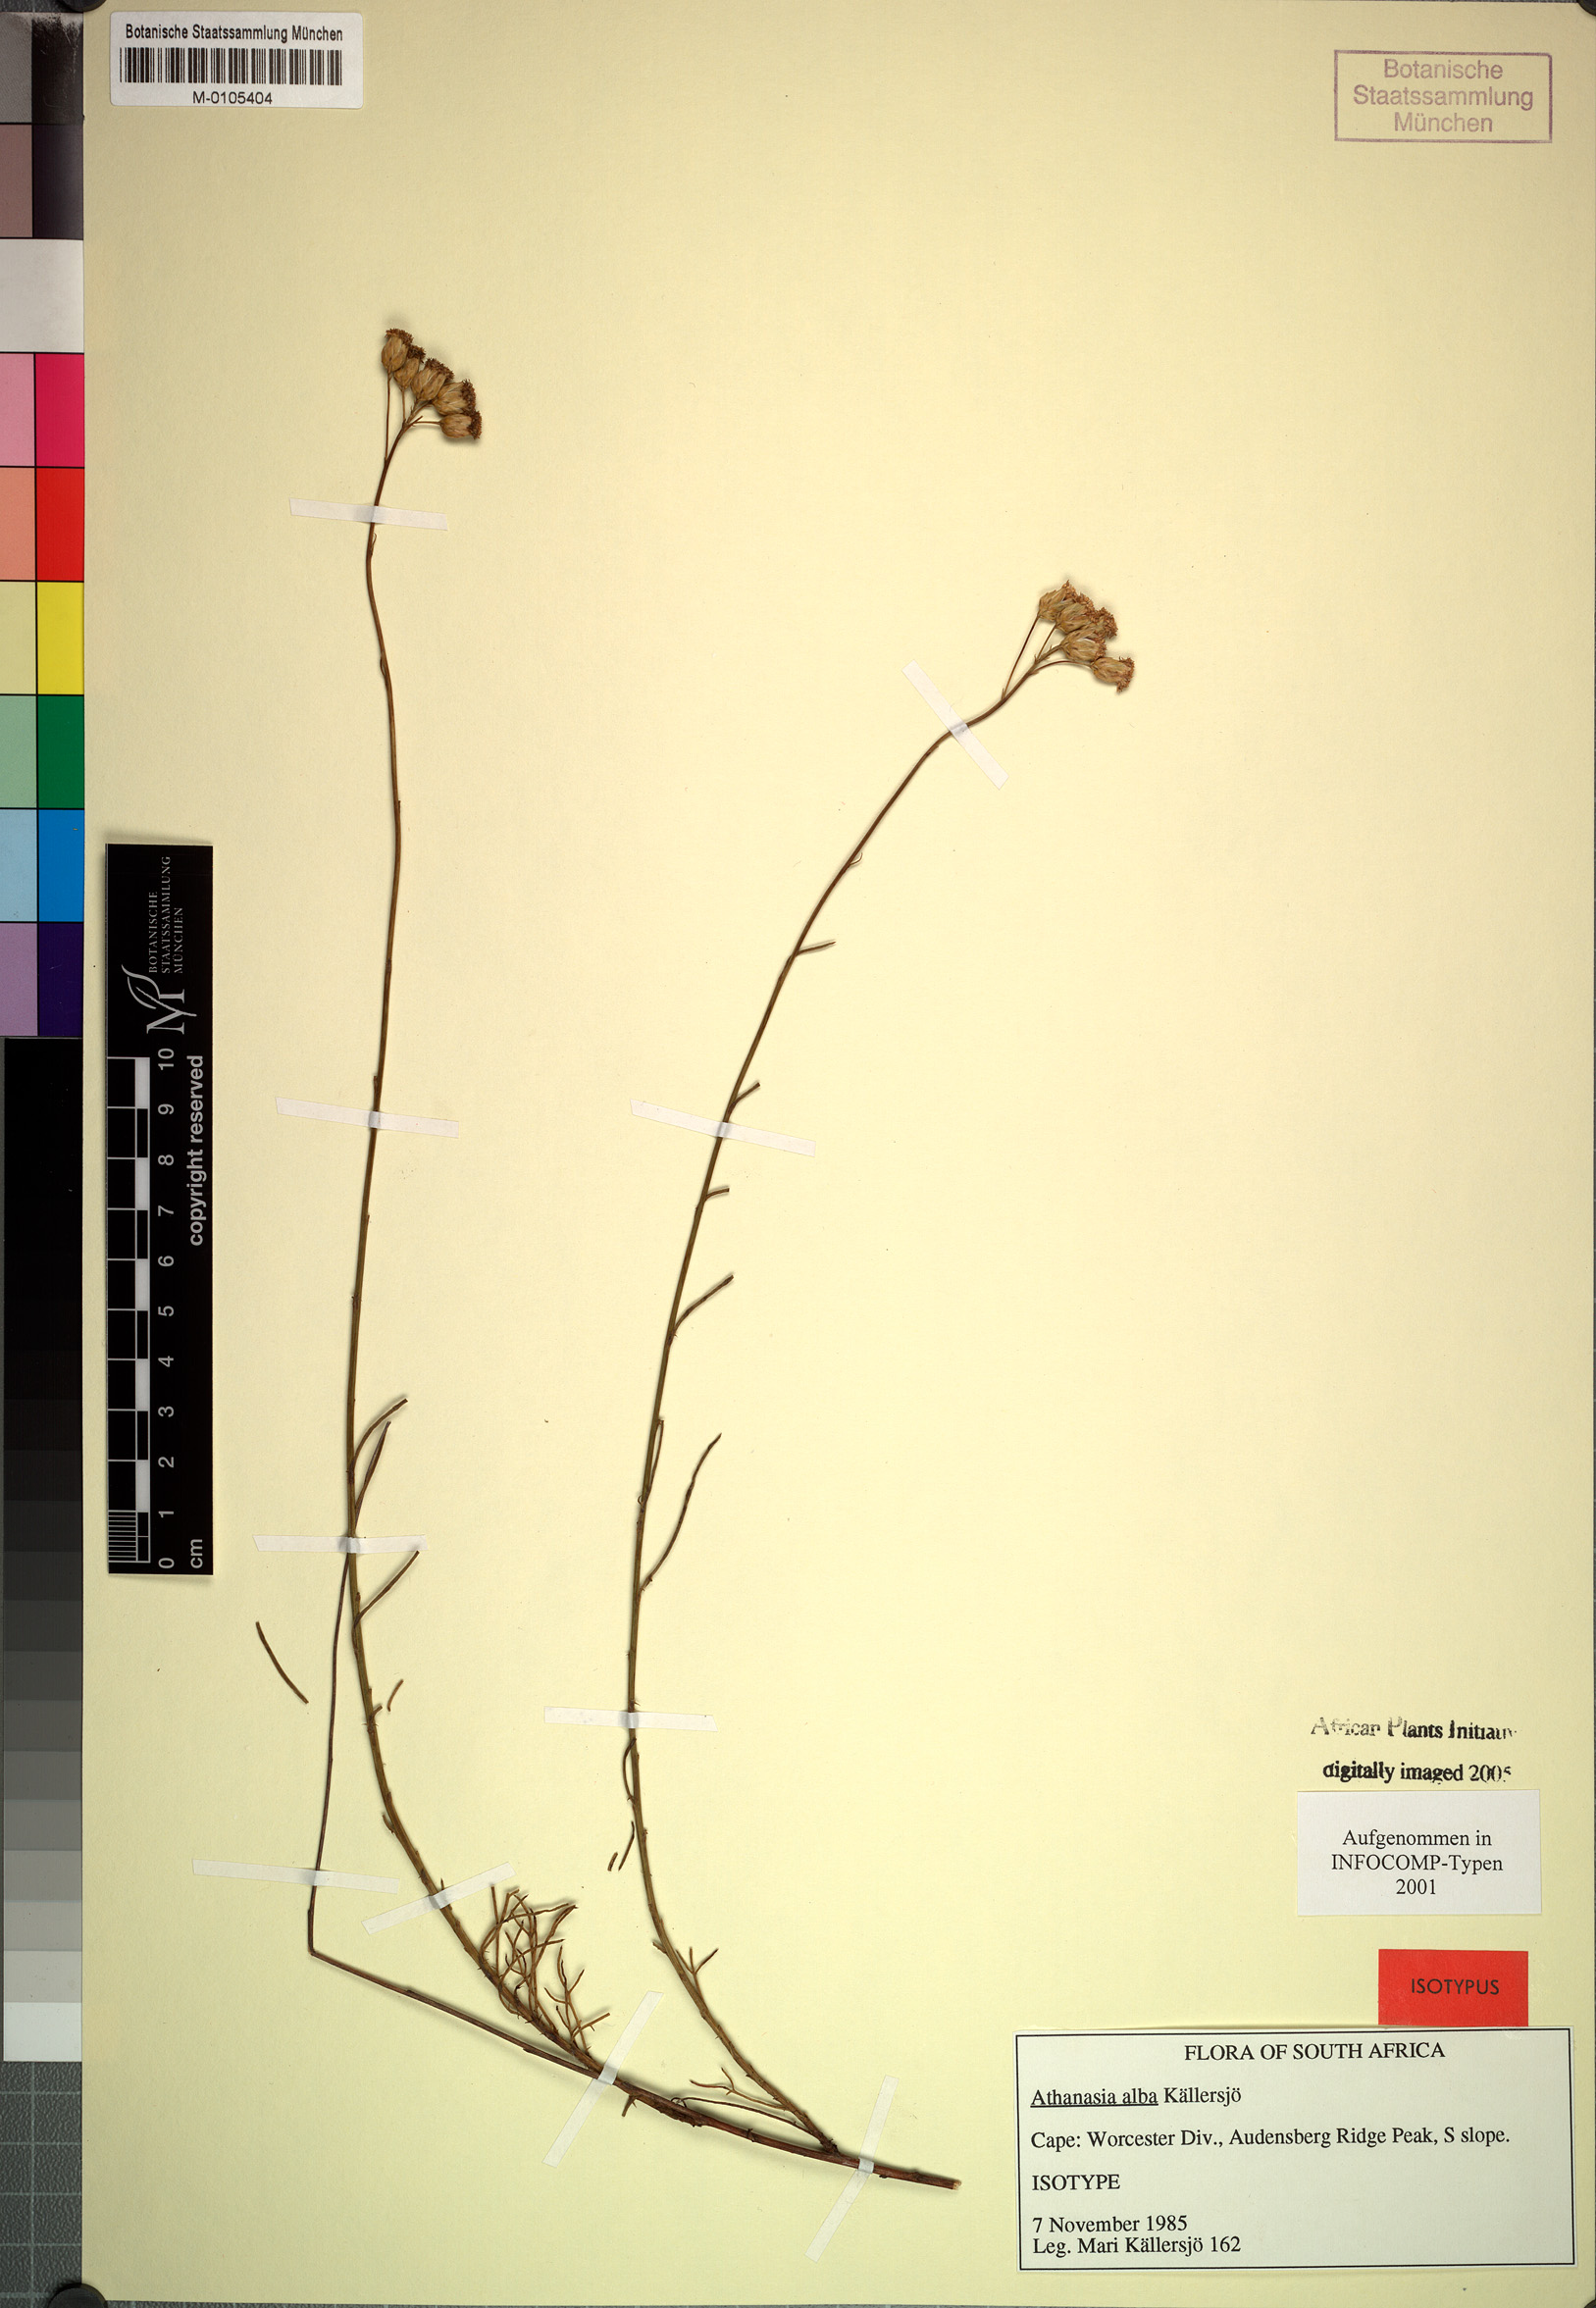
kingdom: Plantae
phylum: Tracheophyta
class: Magnoliopsida
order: Asterales
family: Asteraceae
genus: Athanasia
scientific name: Athanasia alba
